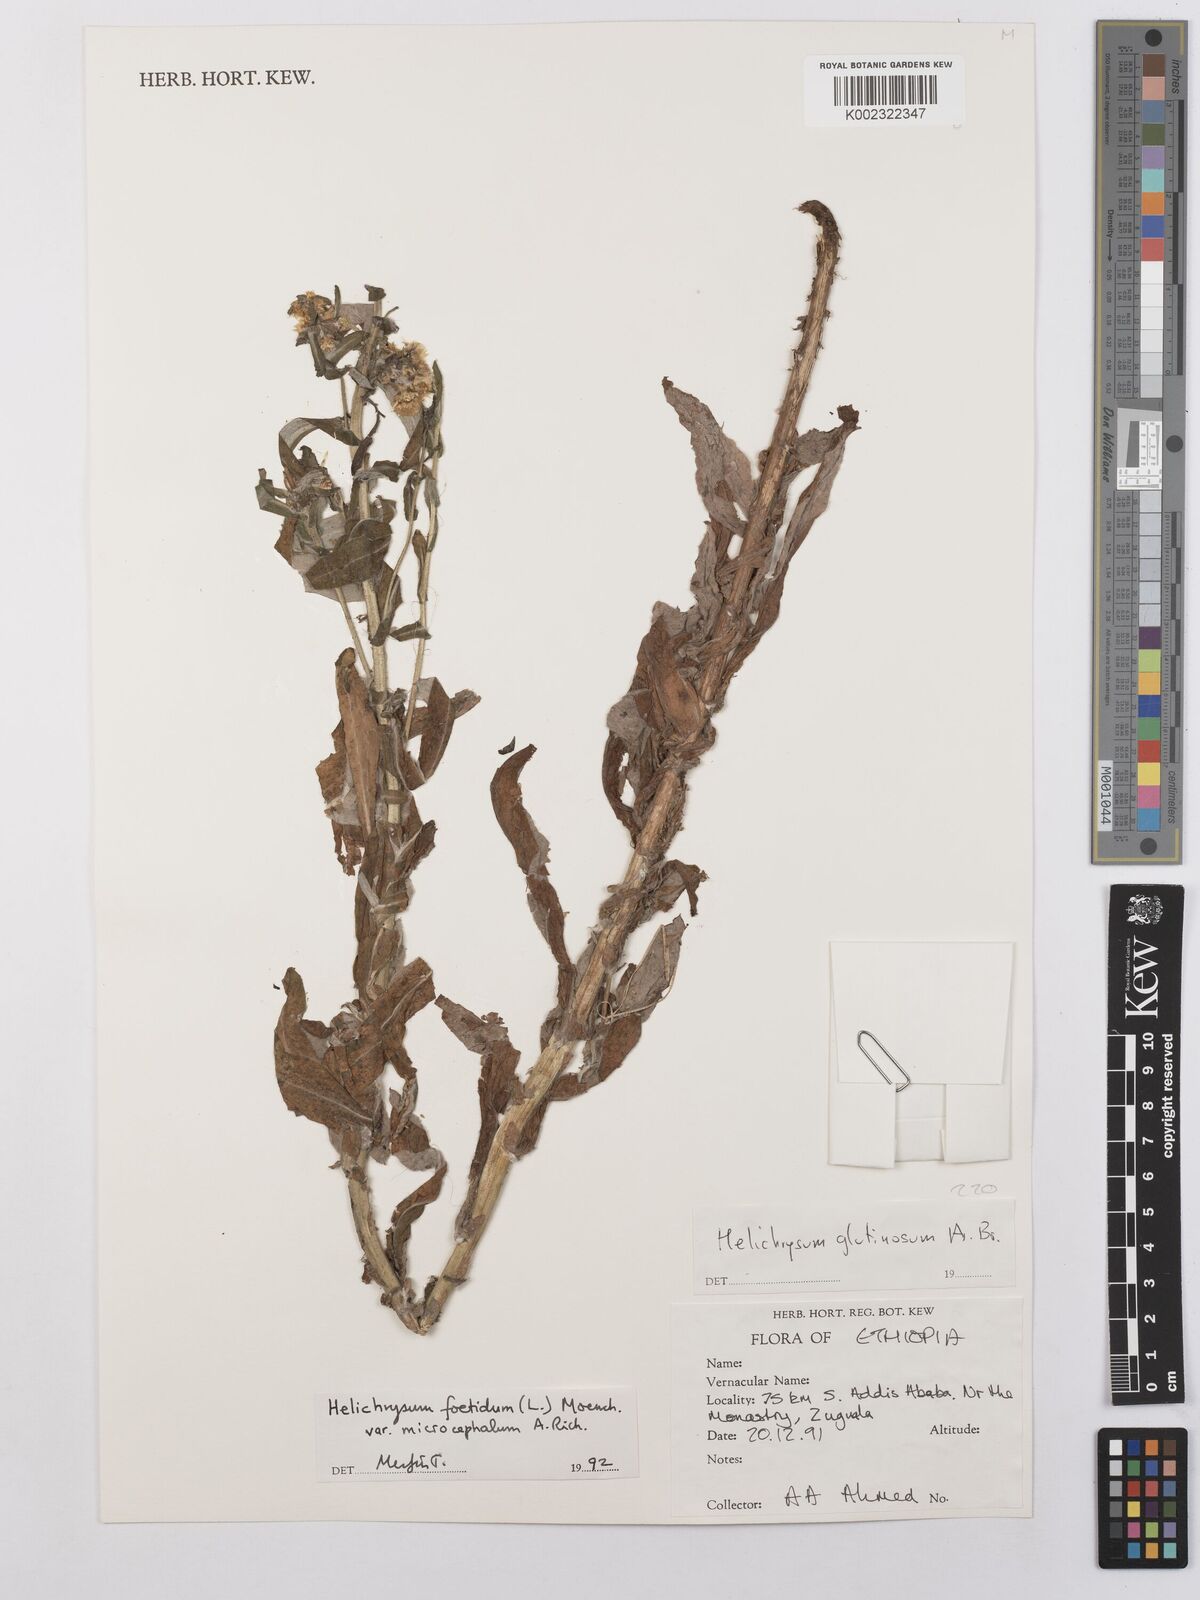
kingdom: Plantae
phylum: Tracheophyta
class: Magnoliopsida
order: Asterales
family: Asteraceae
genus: Helichrysum
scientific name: Helichrysum foetidum
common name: Stinking everlasting
